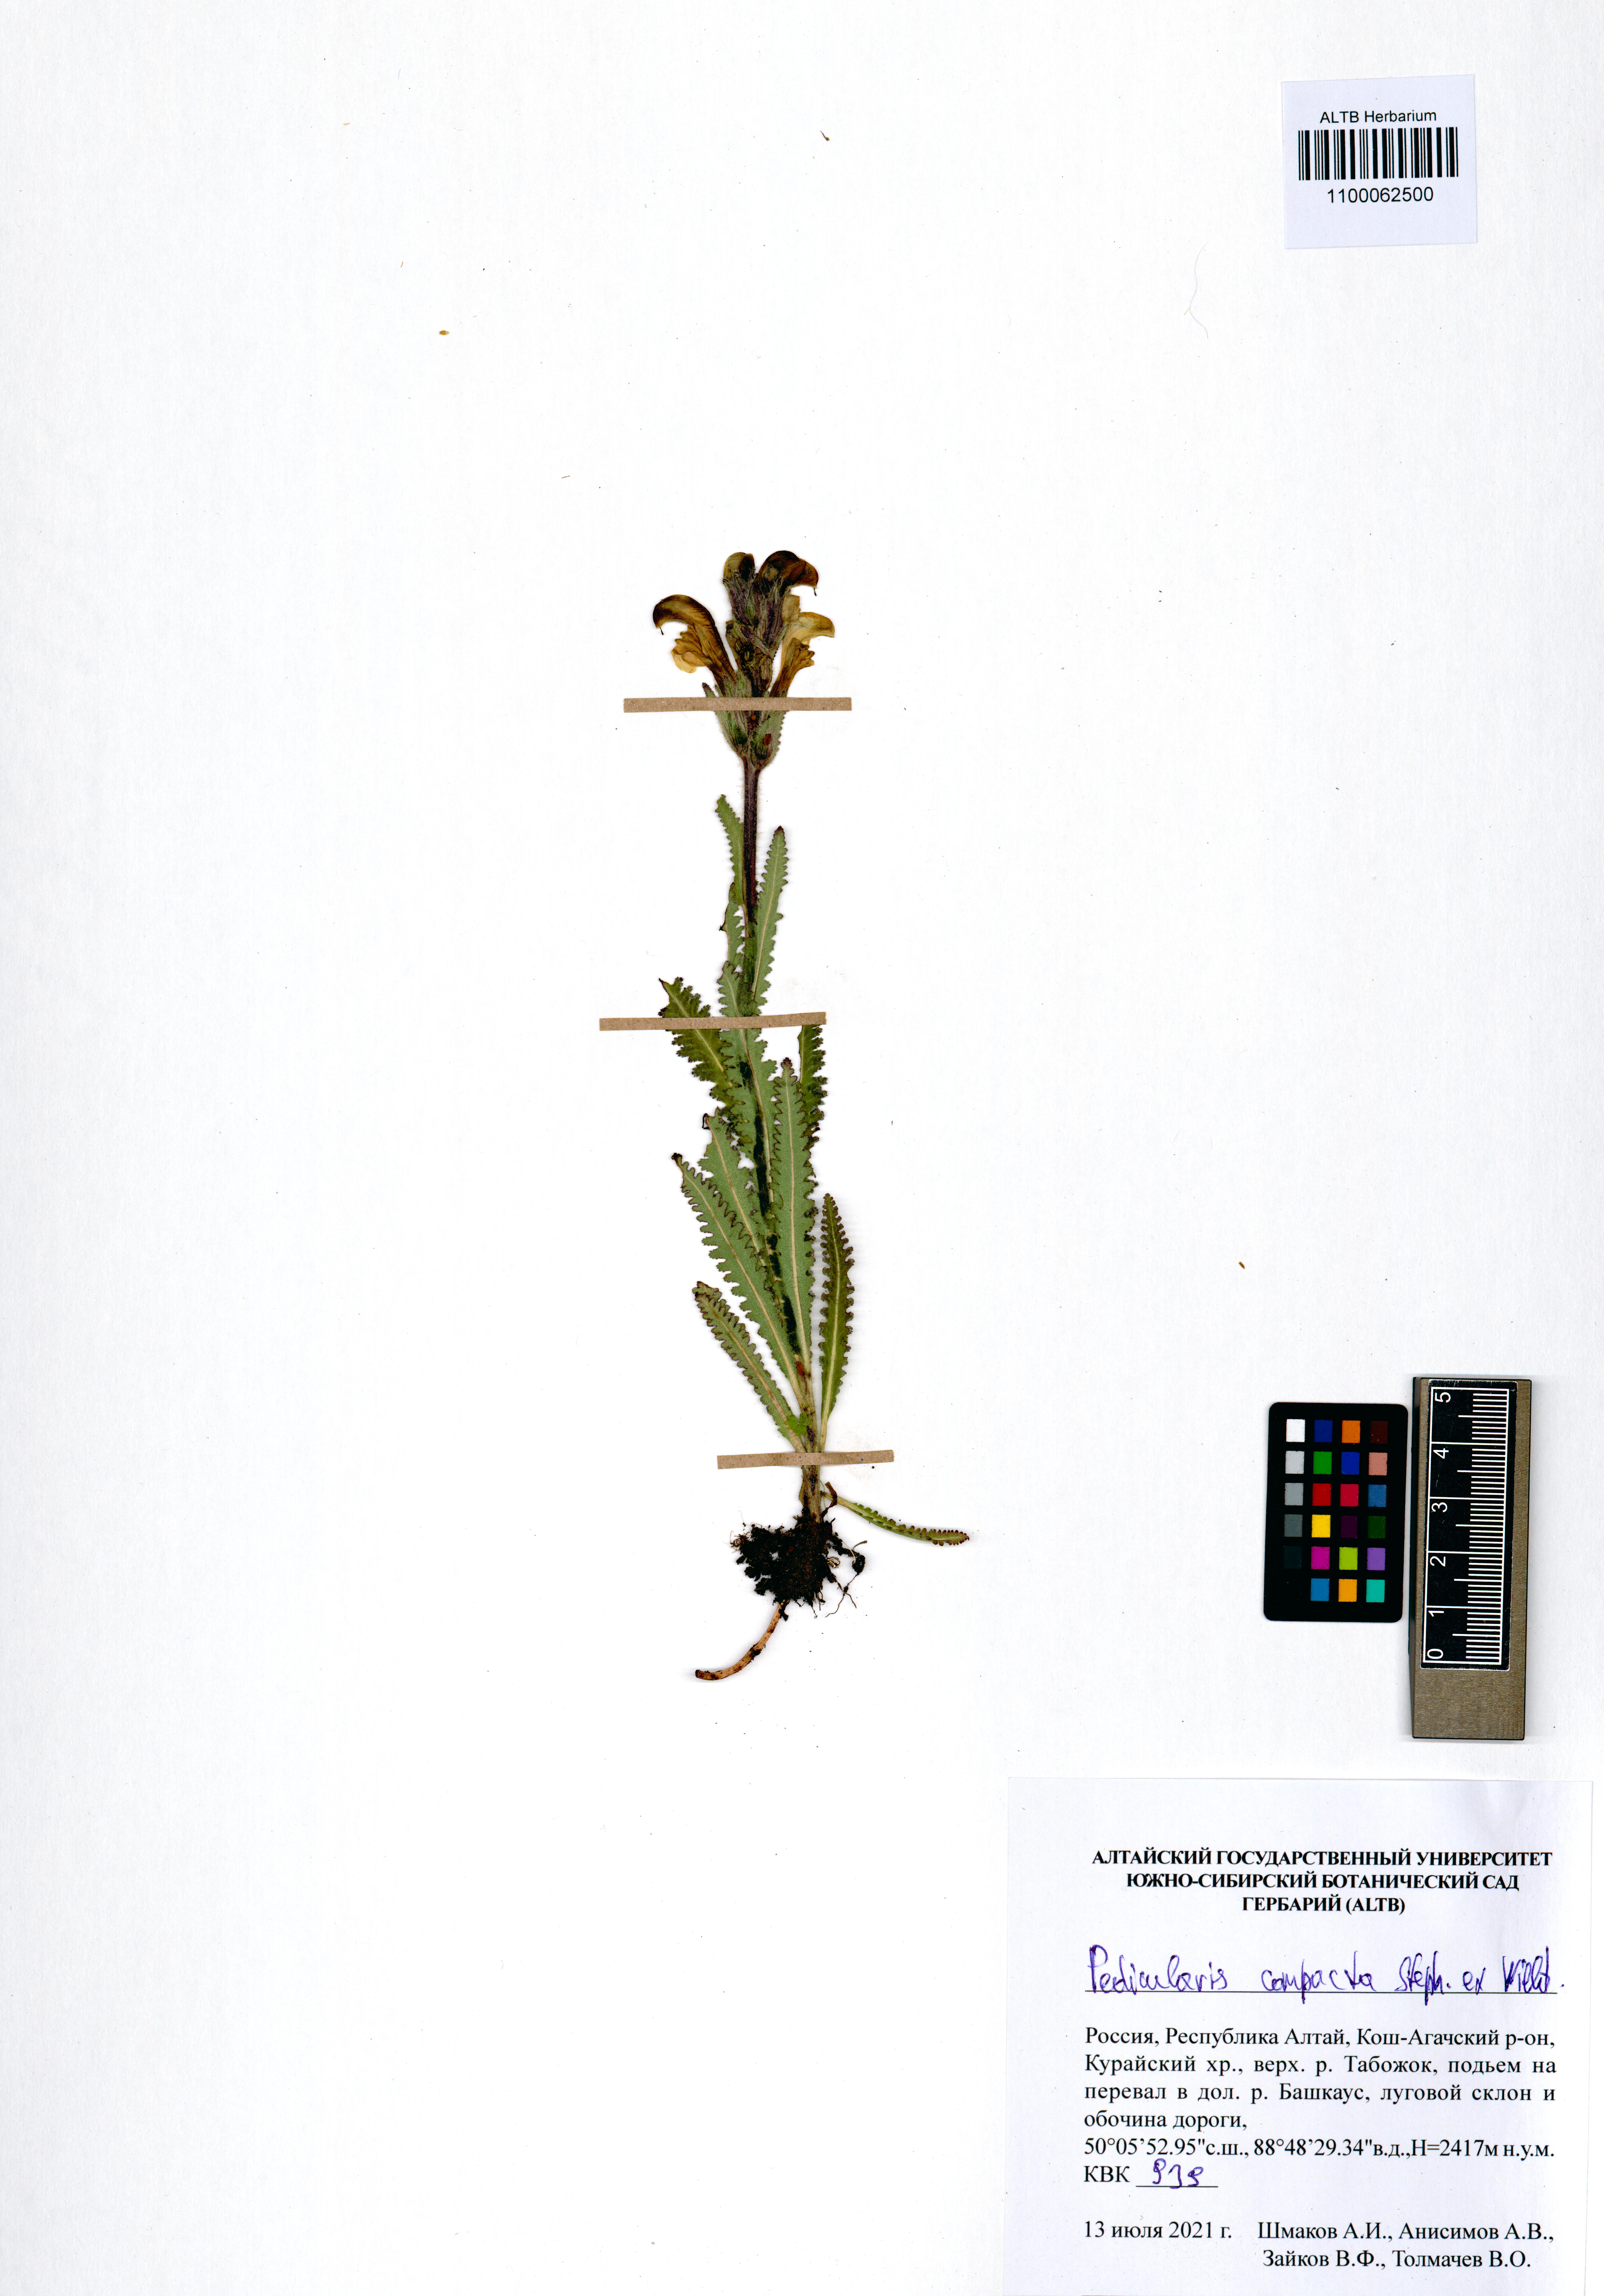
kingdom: Plantae
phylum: Tracheophyta
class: Magnoliopsida
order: Lamiales
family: Orobanchaceae
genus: Pedicularis
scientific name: Pedicularis compacta
